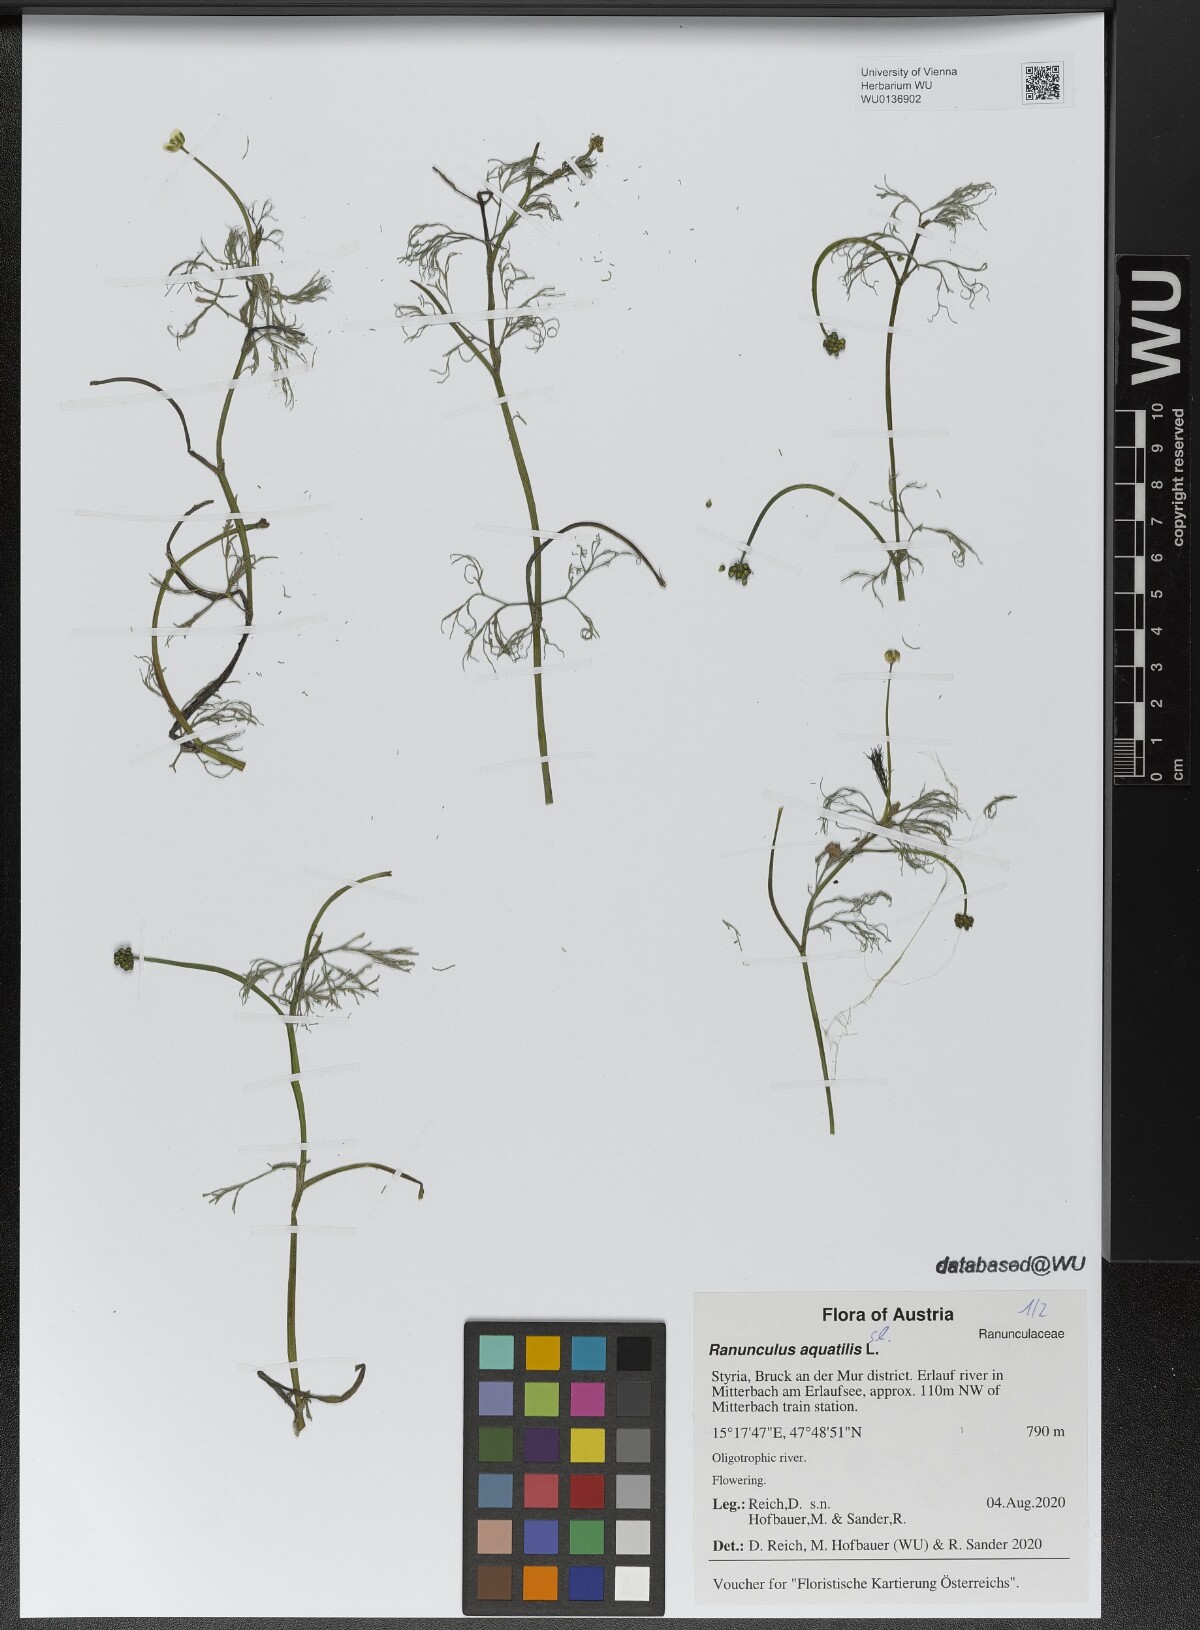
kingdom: Plantae
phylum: Tracheophyta
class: Magnoliopsida
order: Ranunculales
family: Ranunculaceae
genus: Ranunculus
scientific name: Ranunculus aquatilis
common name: Common water-crowfoot
